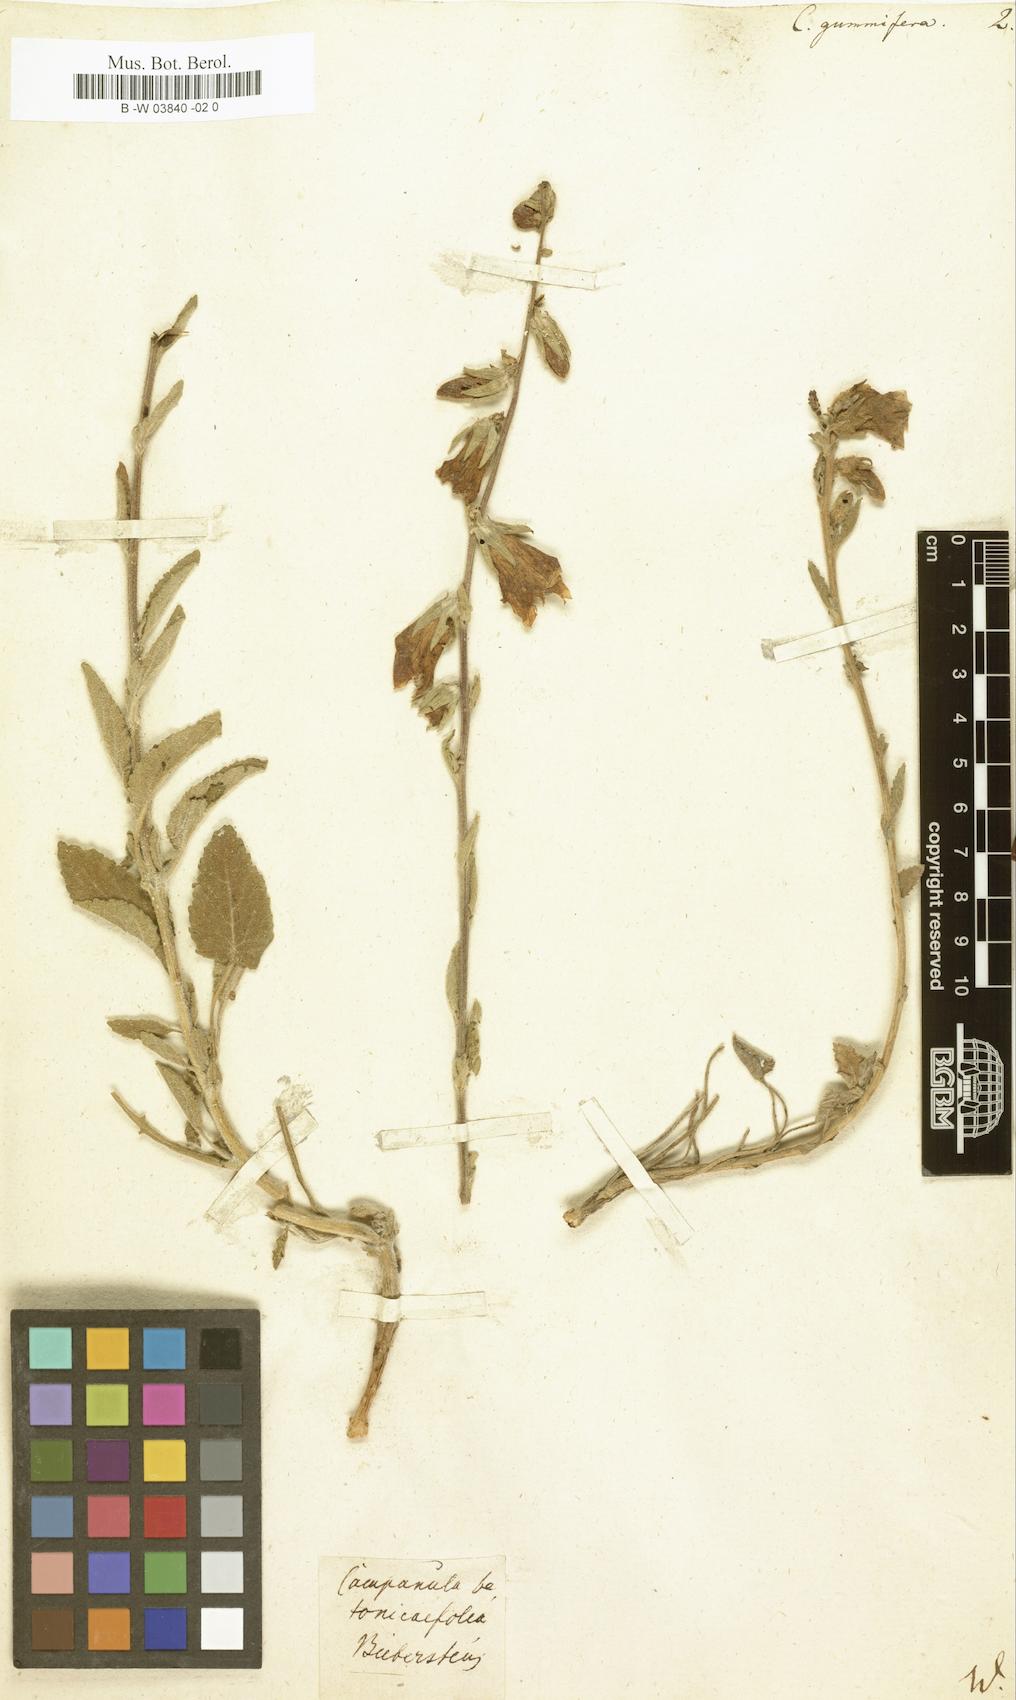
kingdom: Plantae
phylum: Tracheophyta
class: Magnoliopsida
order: Asterales
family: Campanulaceae
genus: Campanula
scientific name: Campanula sarmatica
